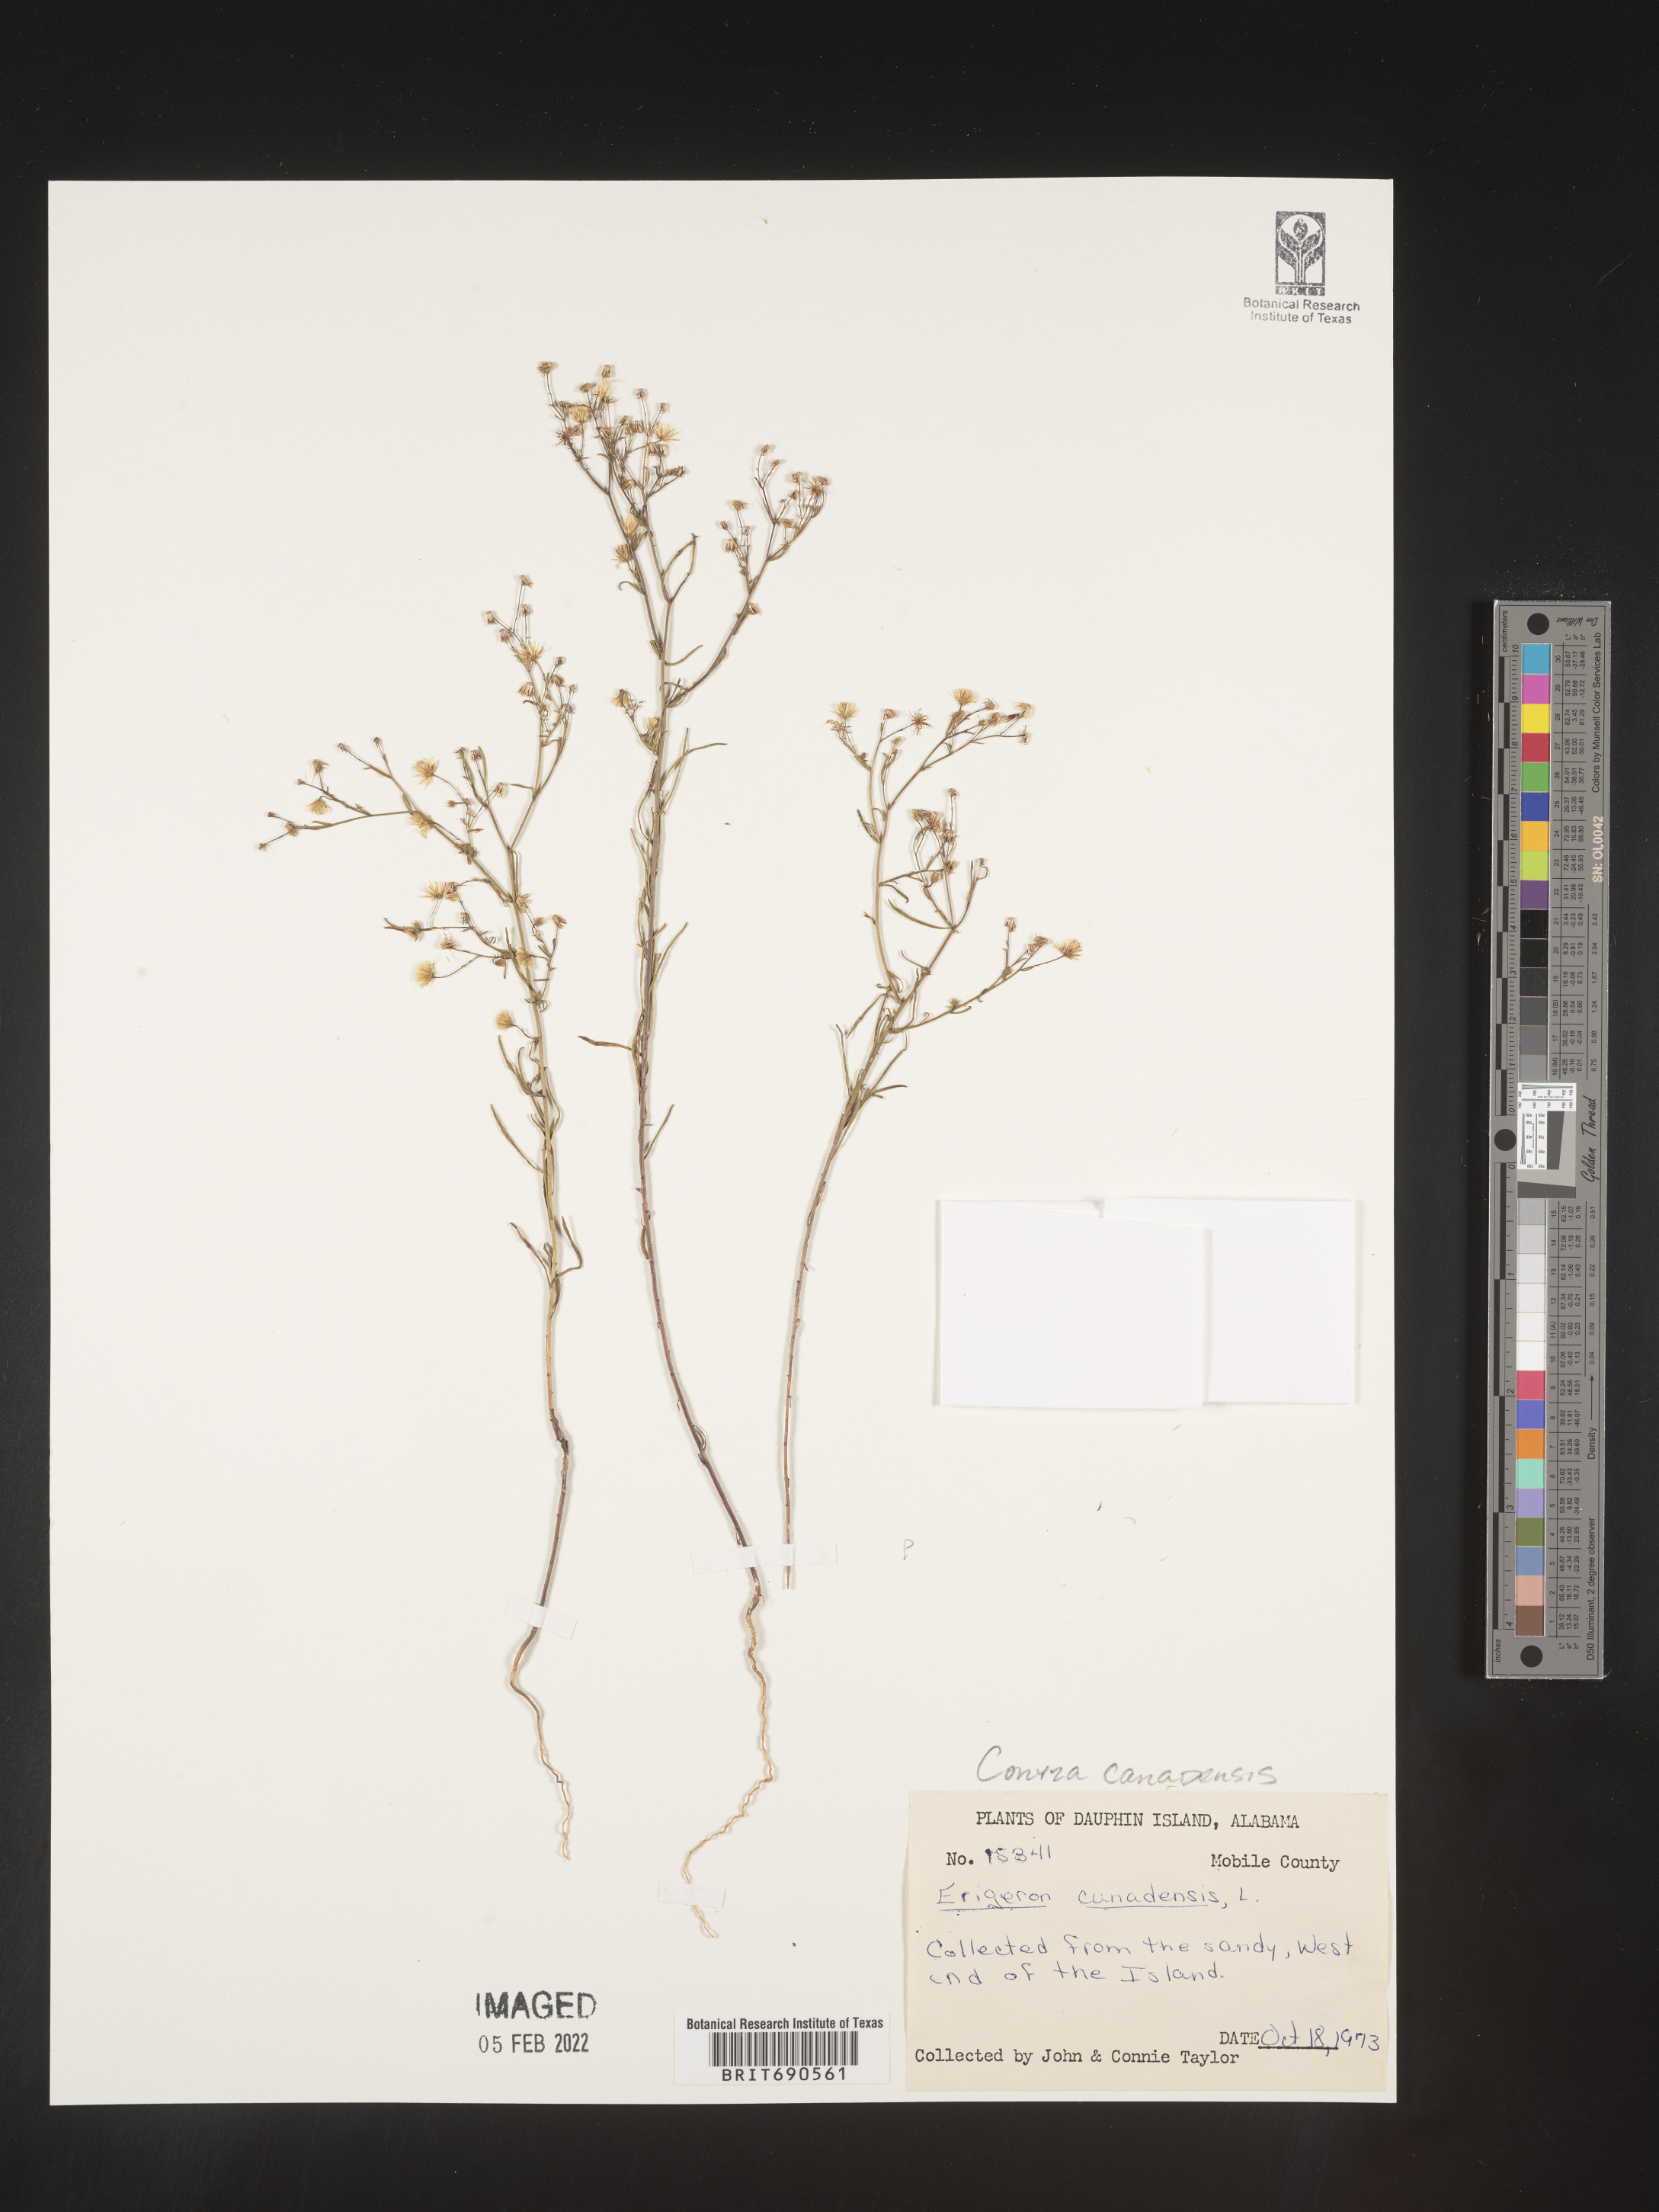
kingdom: Plantae
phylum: Tracheophyta
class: Magnoliopsida
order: Asterales
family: Asteraceae
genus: Erigeron
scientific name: Erigeron canadensis
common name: Canadian fleabane
